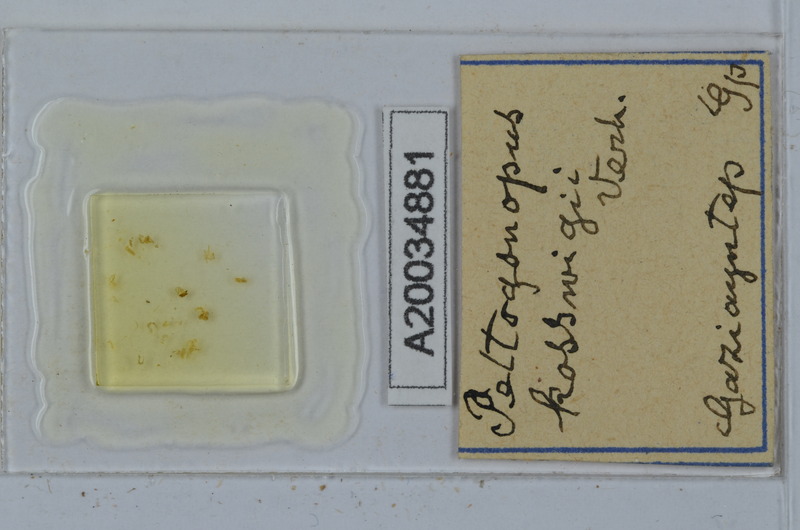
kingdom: Animalia
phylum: Arthropoda
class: Diplopoda
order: Polydesmida
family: Polydesmidae
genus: Peltogonopus
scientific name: Peltogonopus
